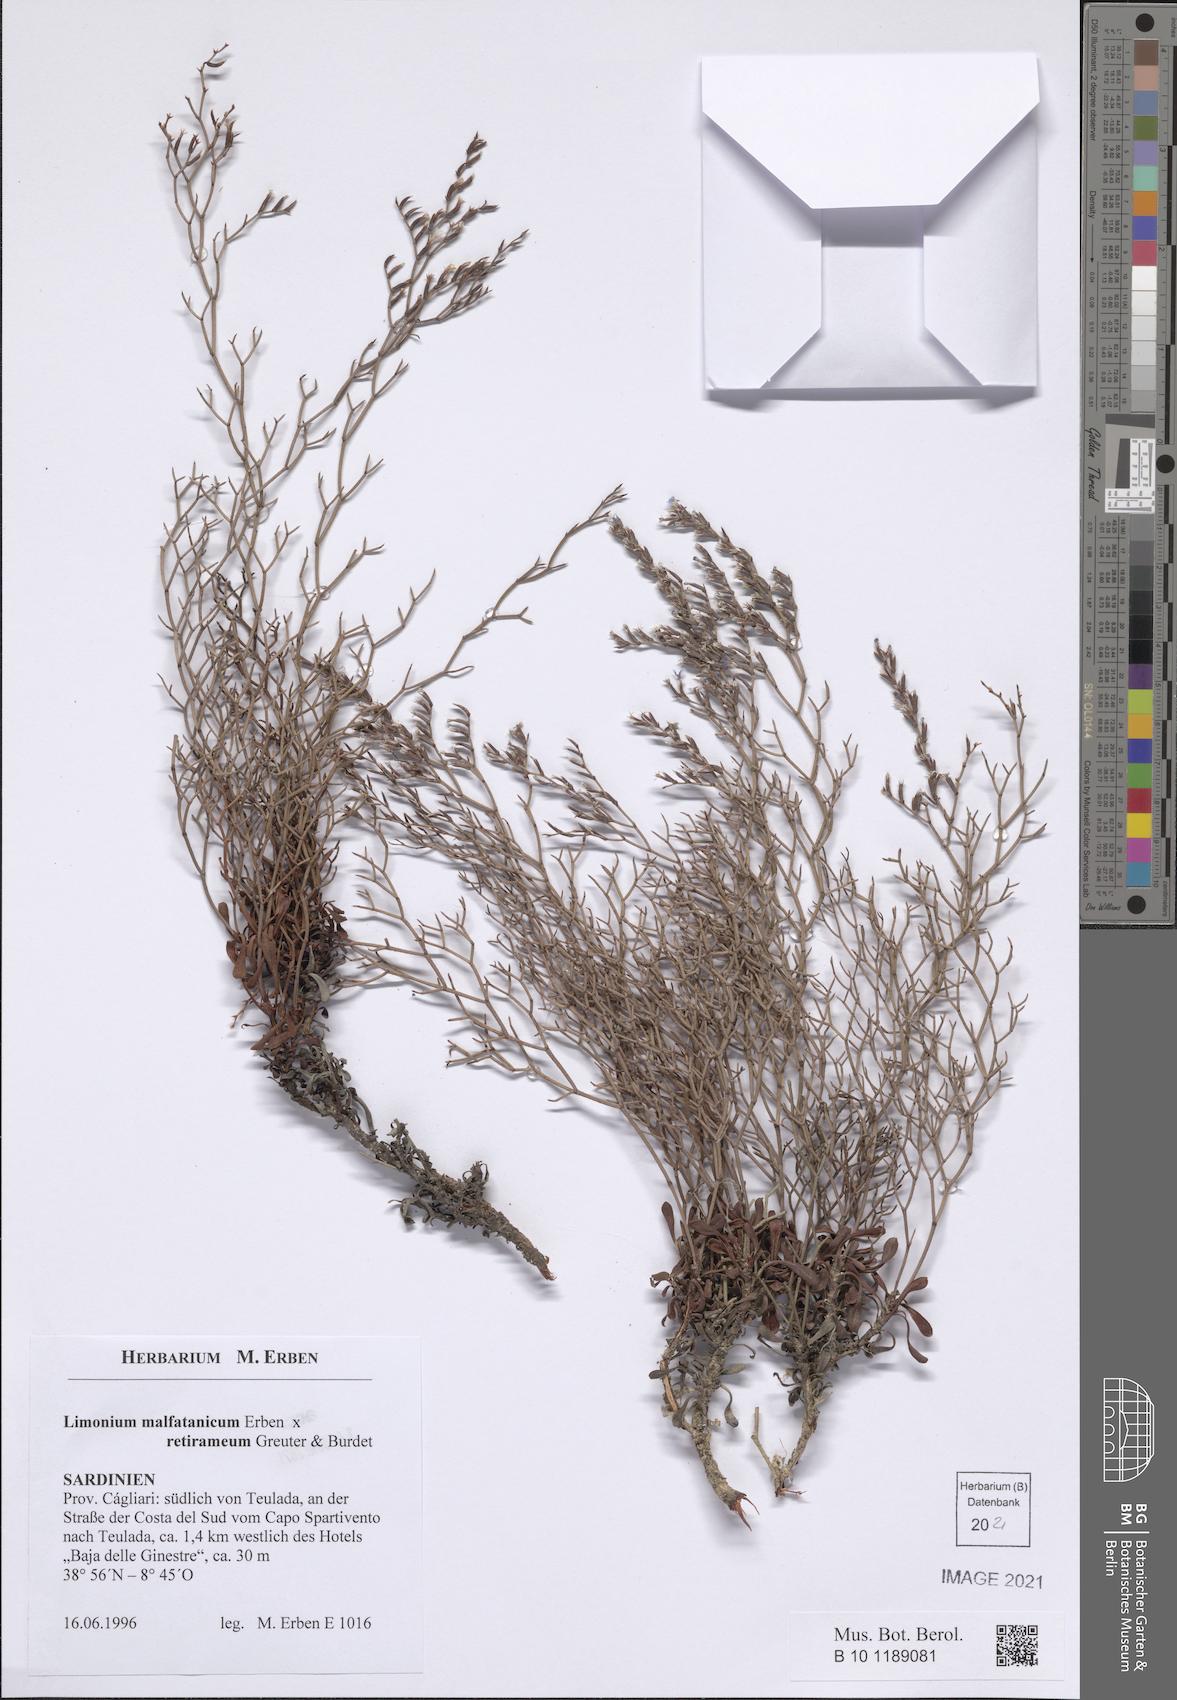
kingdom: Plantae
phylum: Tracheophyta
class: Magnoliopsida
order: Caryophyllales
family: Plumbaginaceae
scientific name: Plumbaginaceae
